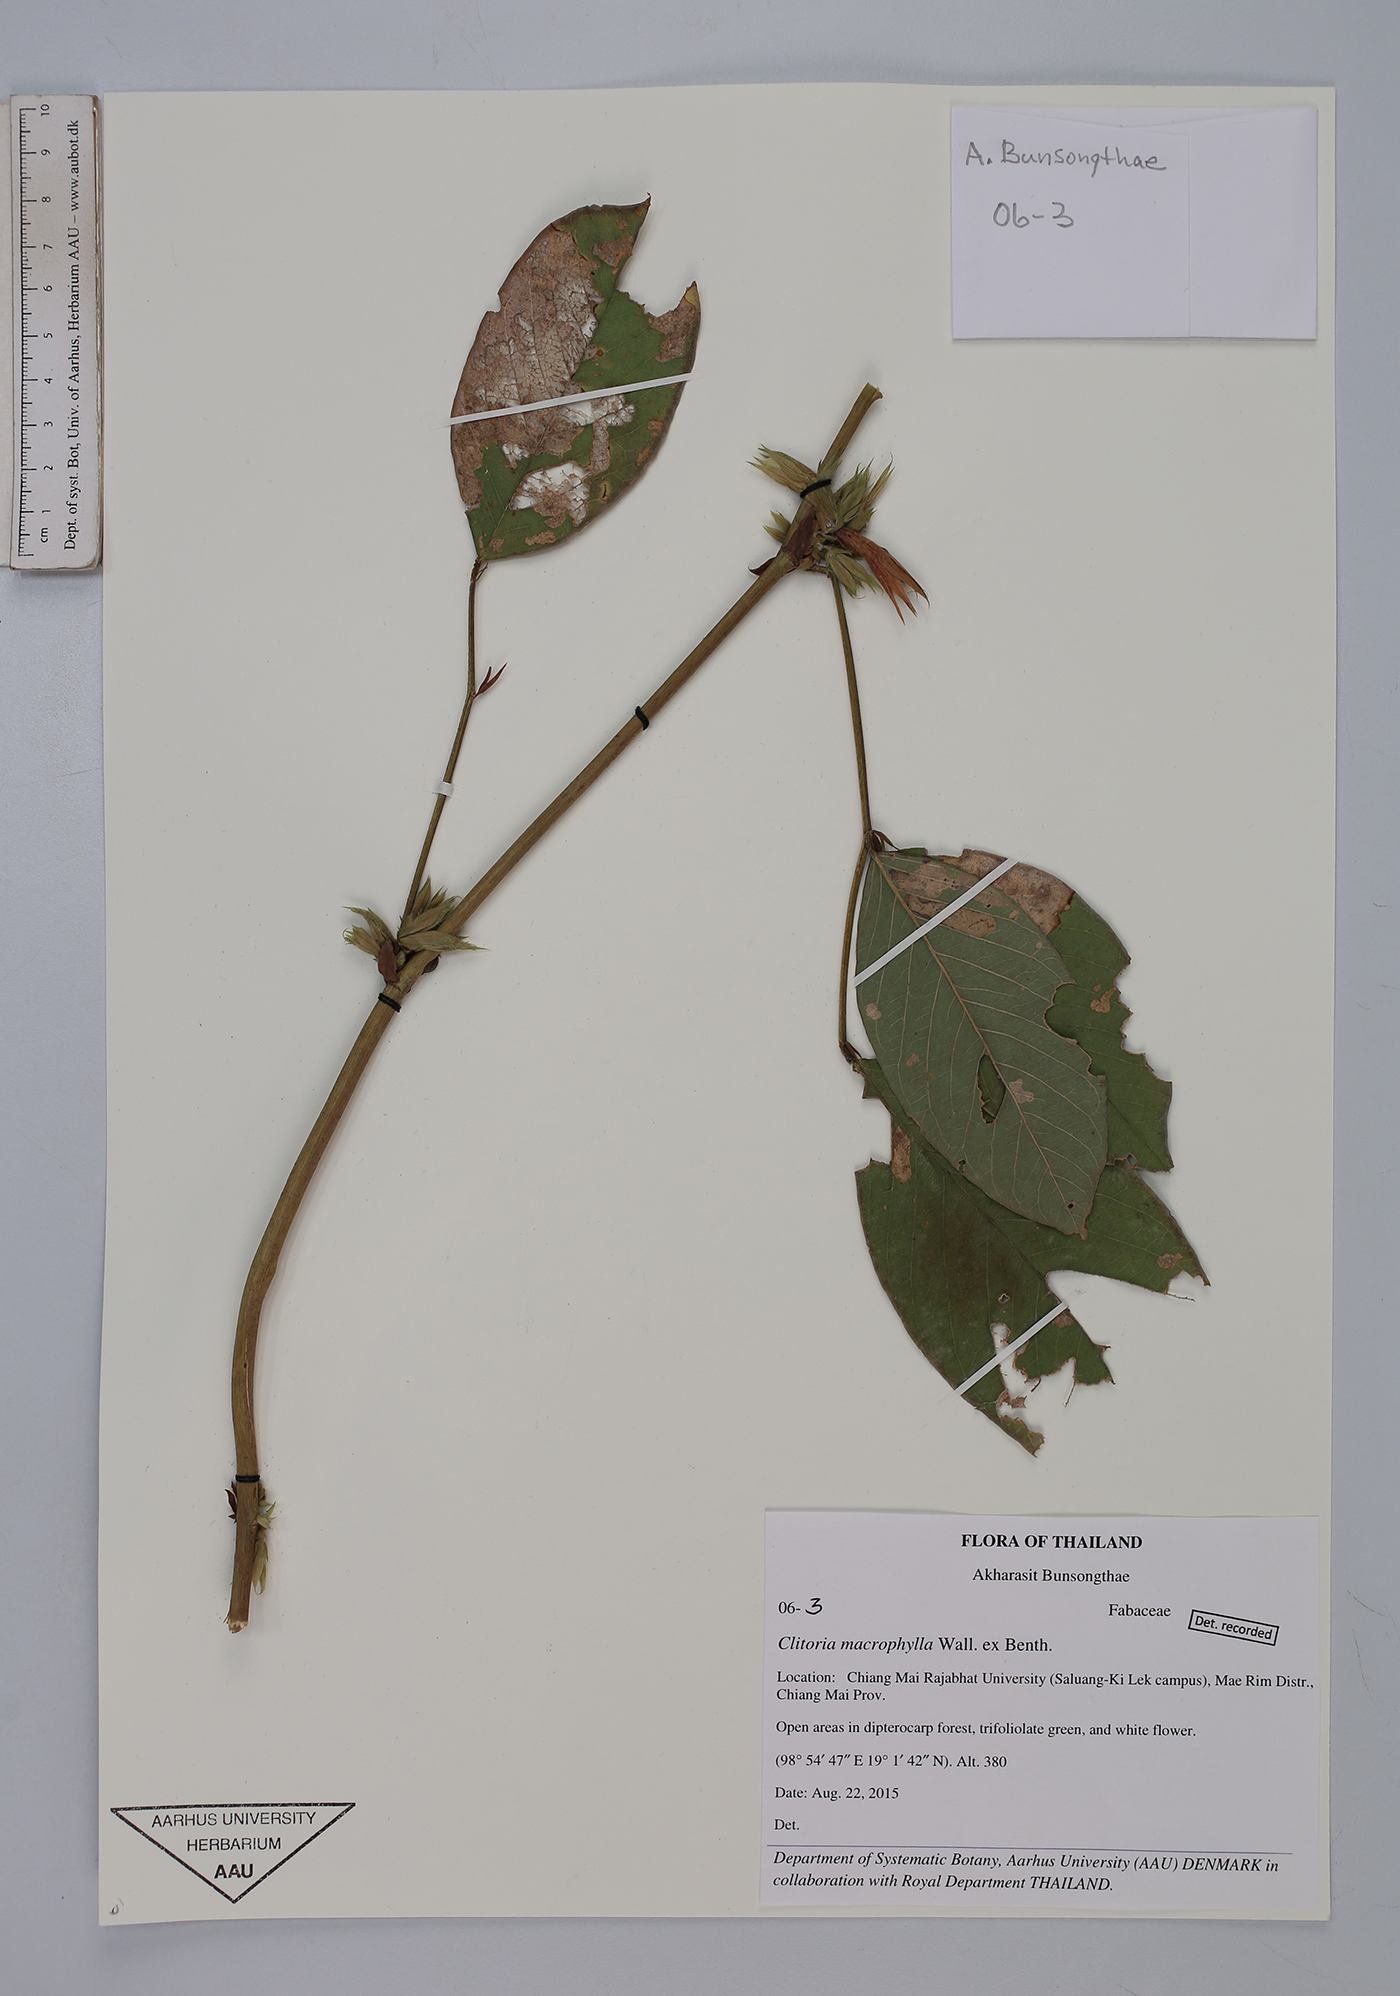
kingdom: Plantae
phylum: Tracheophyta
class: Magnoliopsida
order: Fabales
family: Fabaceae
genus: Clitoria
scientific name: Clitoria macrophylla
